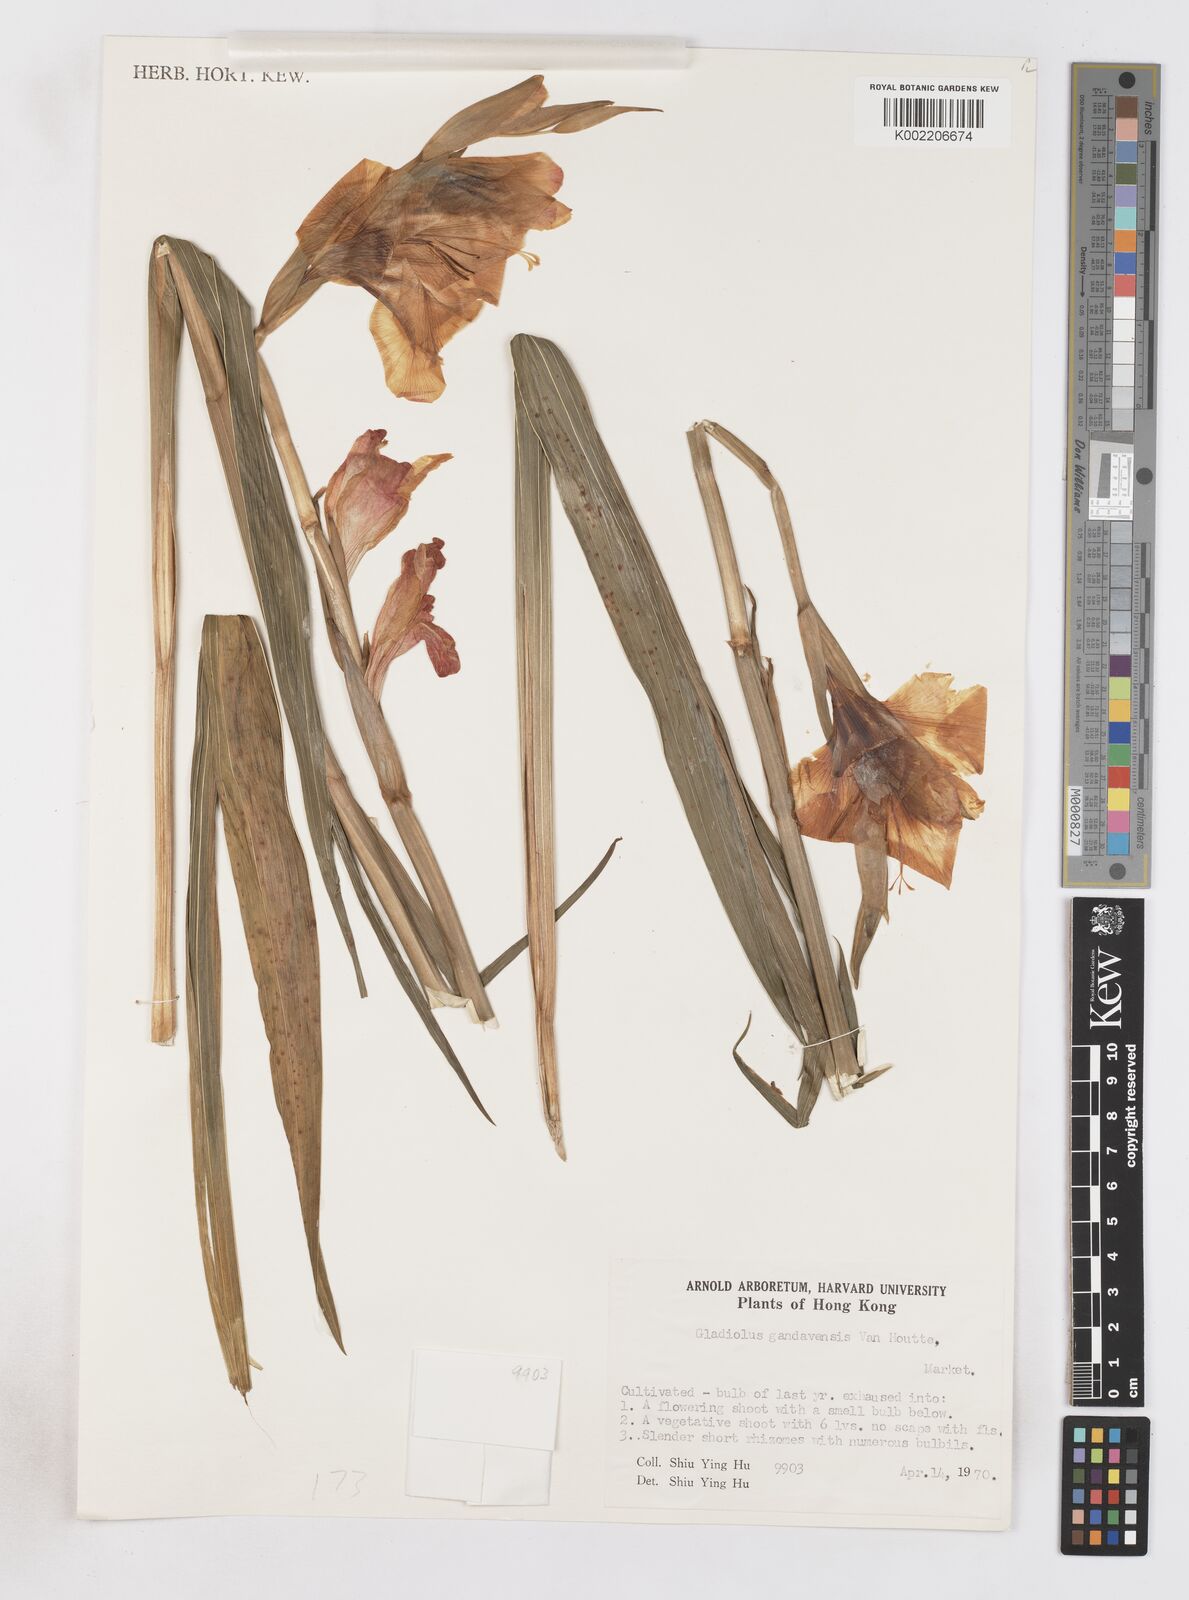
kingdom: Plantae
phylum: Tracheophyta
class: Liliopsida
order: Asparagales
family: Iridaceae
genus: Gladiolus
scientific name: Gladiolus gandavensis
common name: Gladiolus
